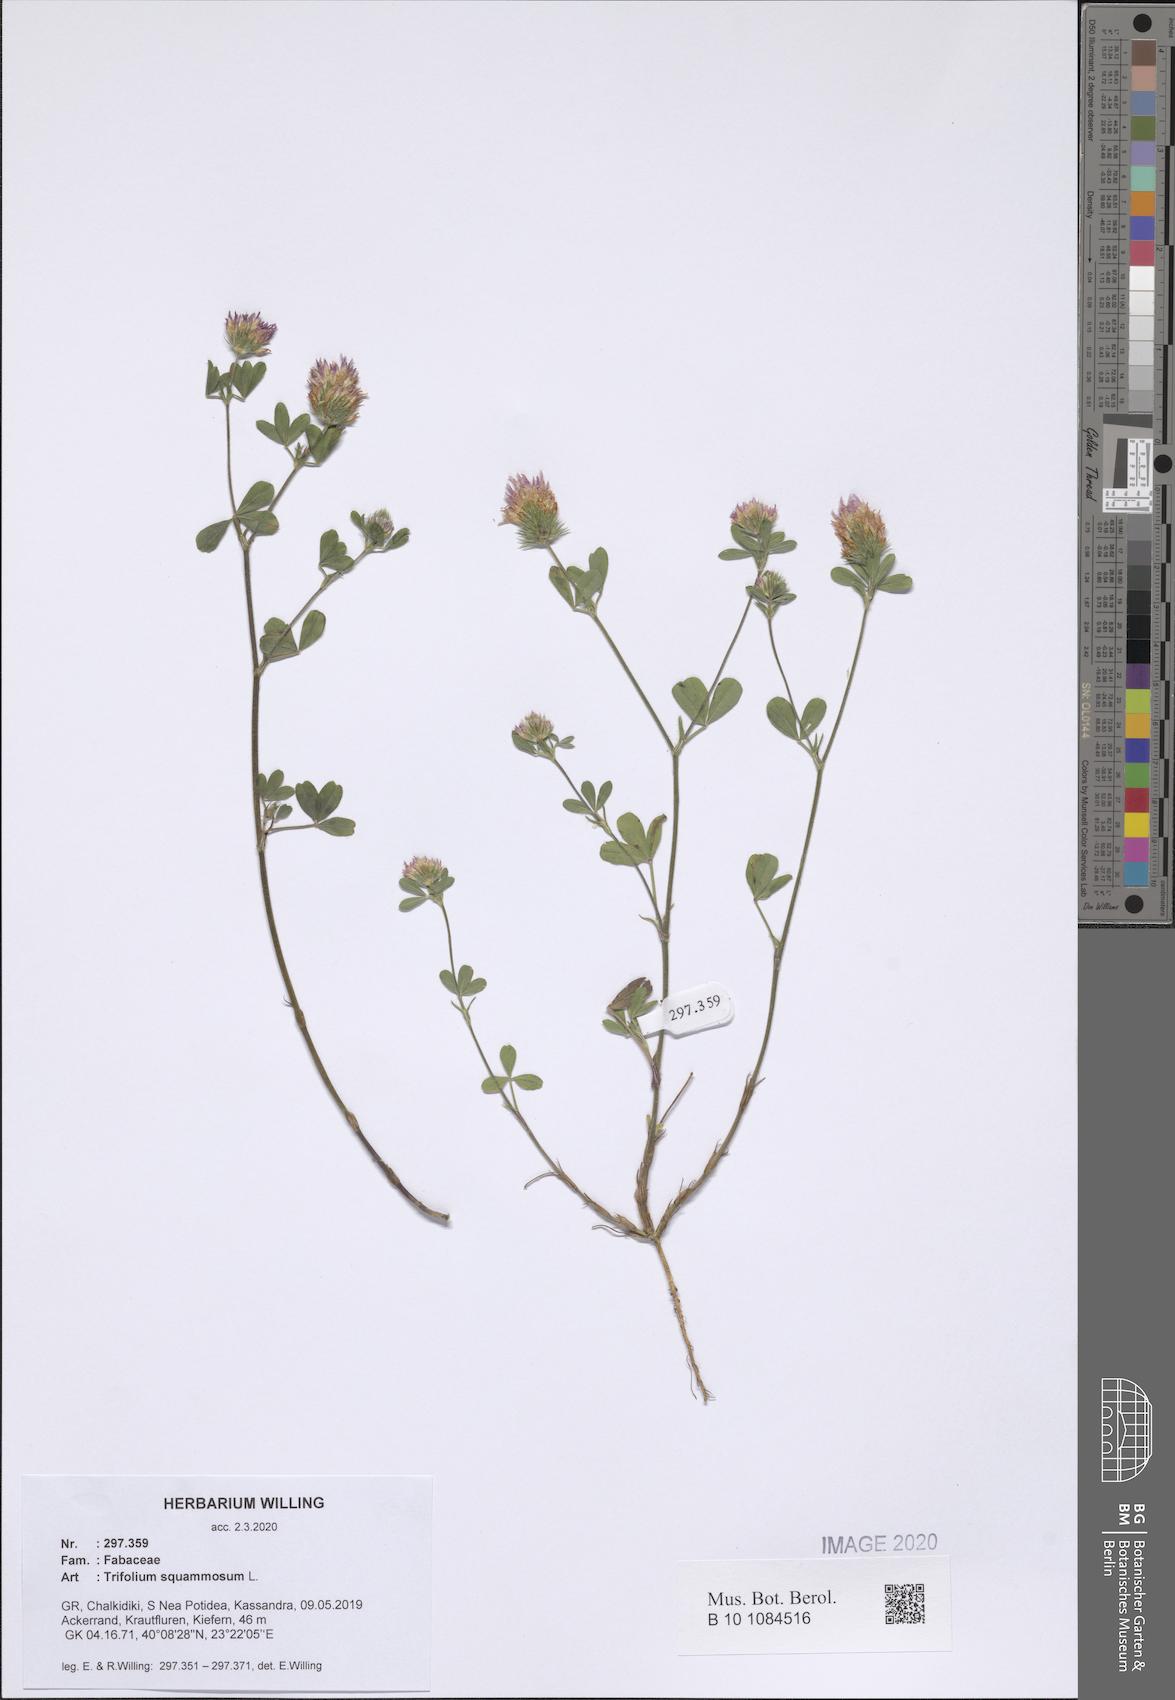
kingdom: Plantae
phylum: Tracheophyta
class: Magnoliopsida
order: Fabales
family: Fabaceae
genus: Trifolium
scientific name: Trifolium squamosum
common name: Sea clover
